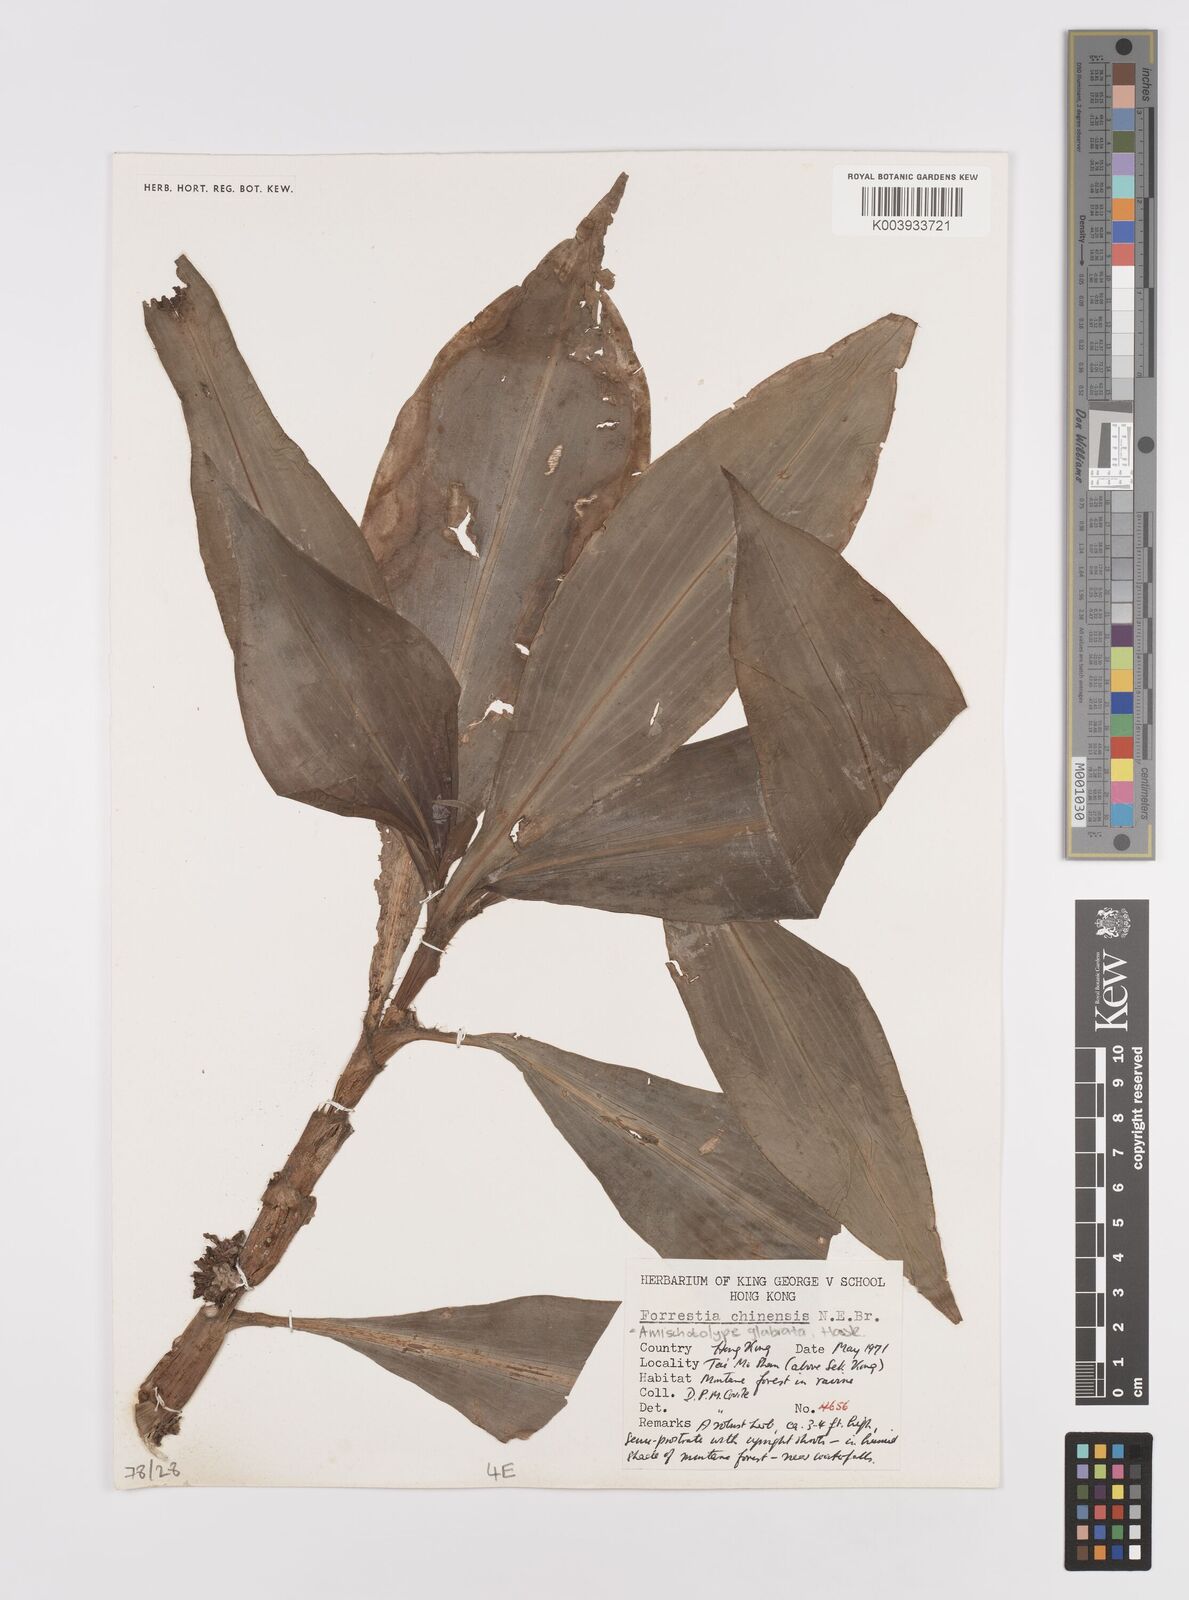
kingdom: Plantae
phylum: Tracheophyta
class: Liliopsida
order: Commelinales
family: Commelinaceae
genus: Amischotolype
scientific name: Amischotolype glabrata
